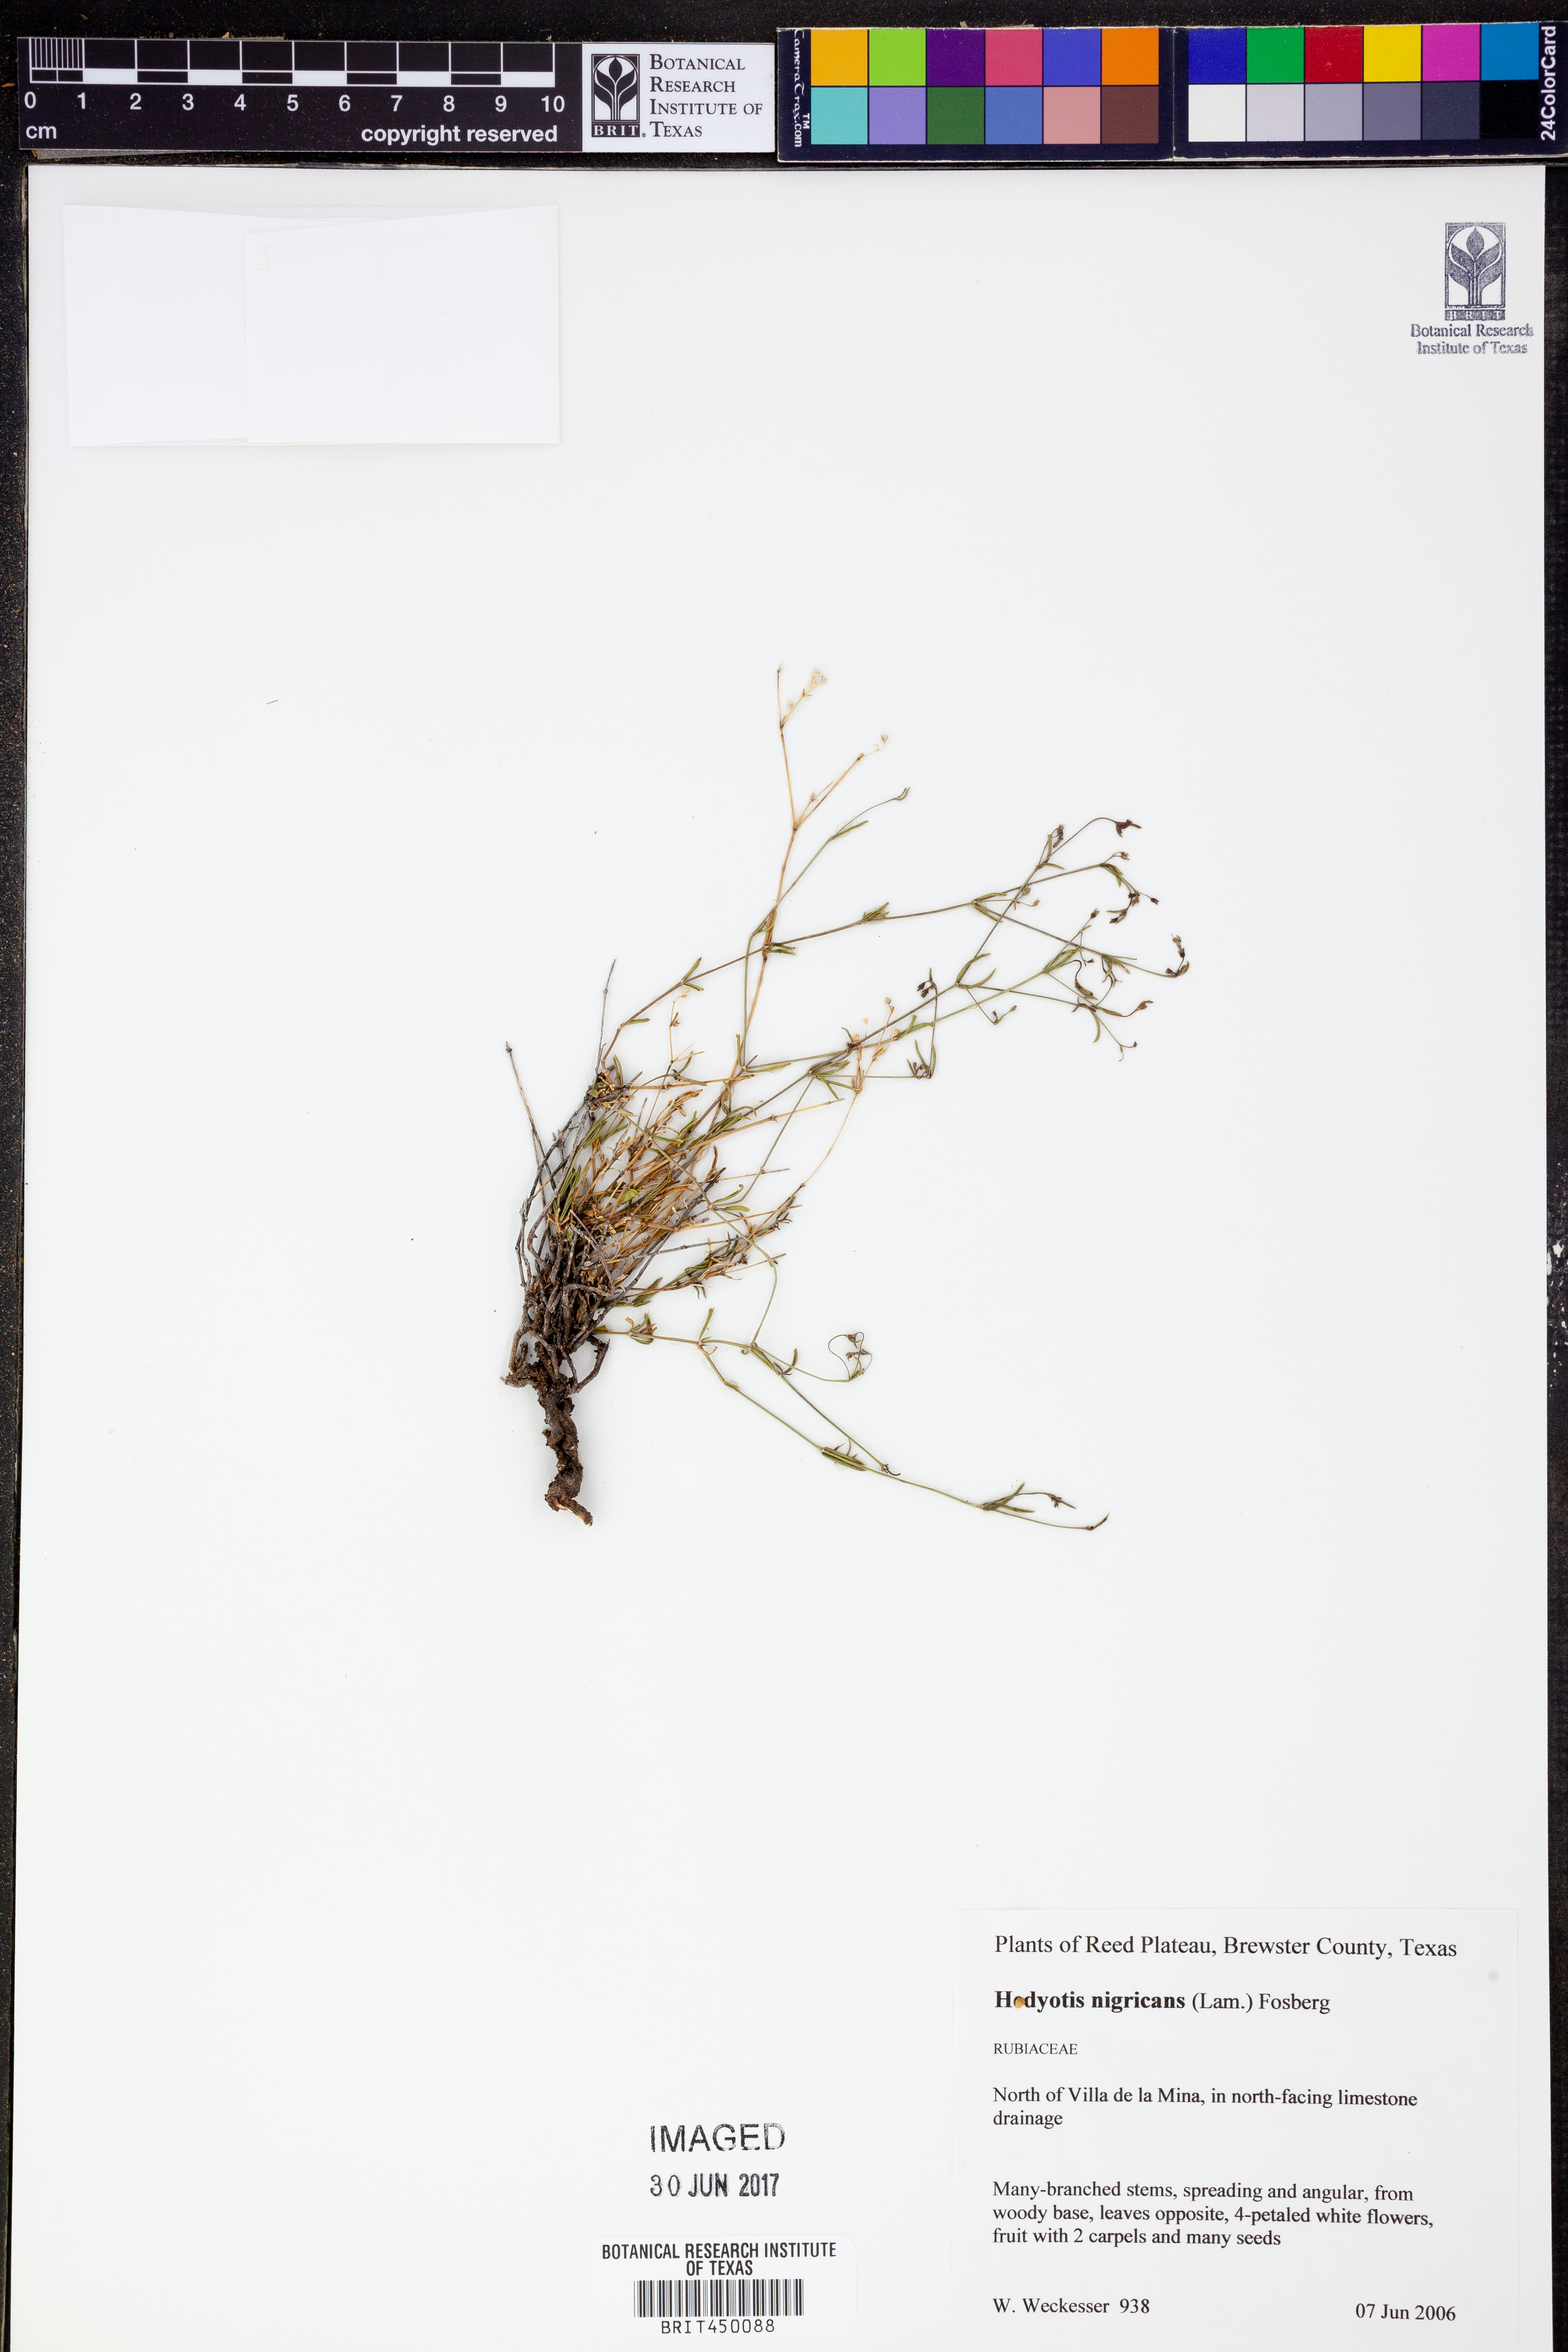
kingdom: Plantae
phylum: Tracheophyta
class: Magnoliopsida
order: Gentianales
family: Rubiaceae
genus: Stenaria
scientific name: Stenaria nigricans
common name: Diamondflowers
